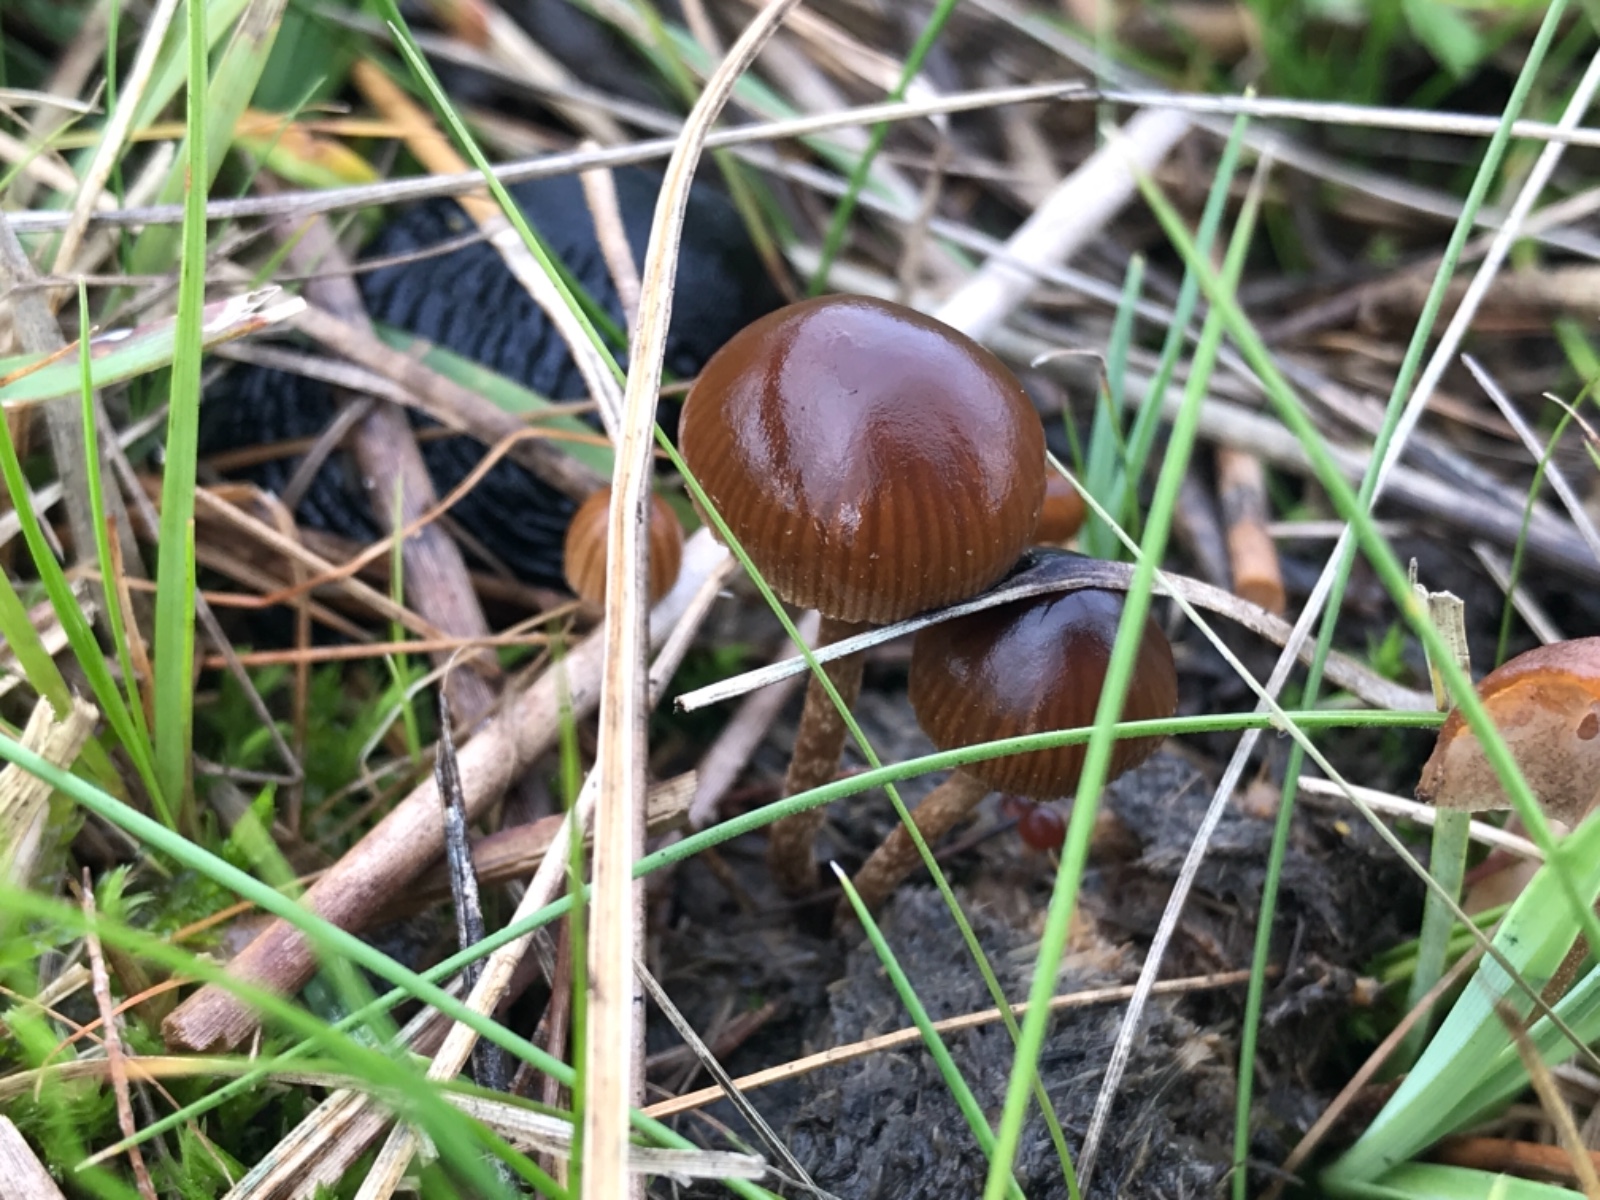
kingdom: Fungi
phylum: Basidiomycota
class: Agaricomycetes
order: Agaricales
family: Strophariaceae
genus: Deconica
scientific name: Deconica
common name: stråhat
